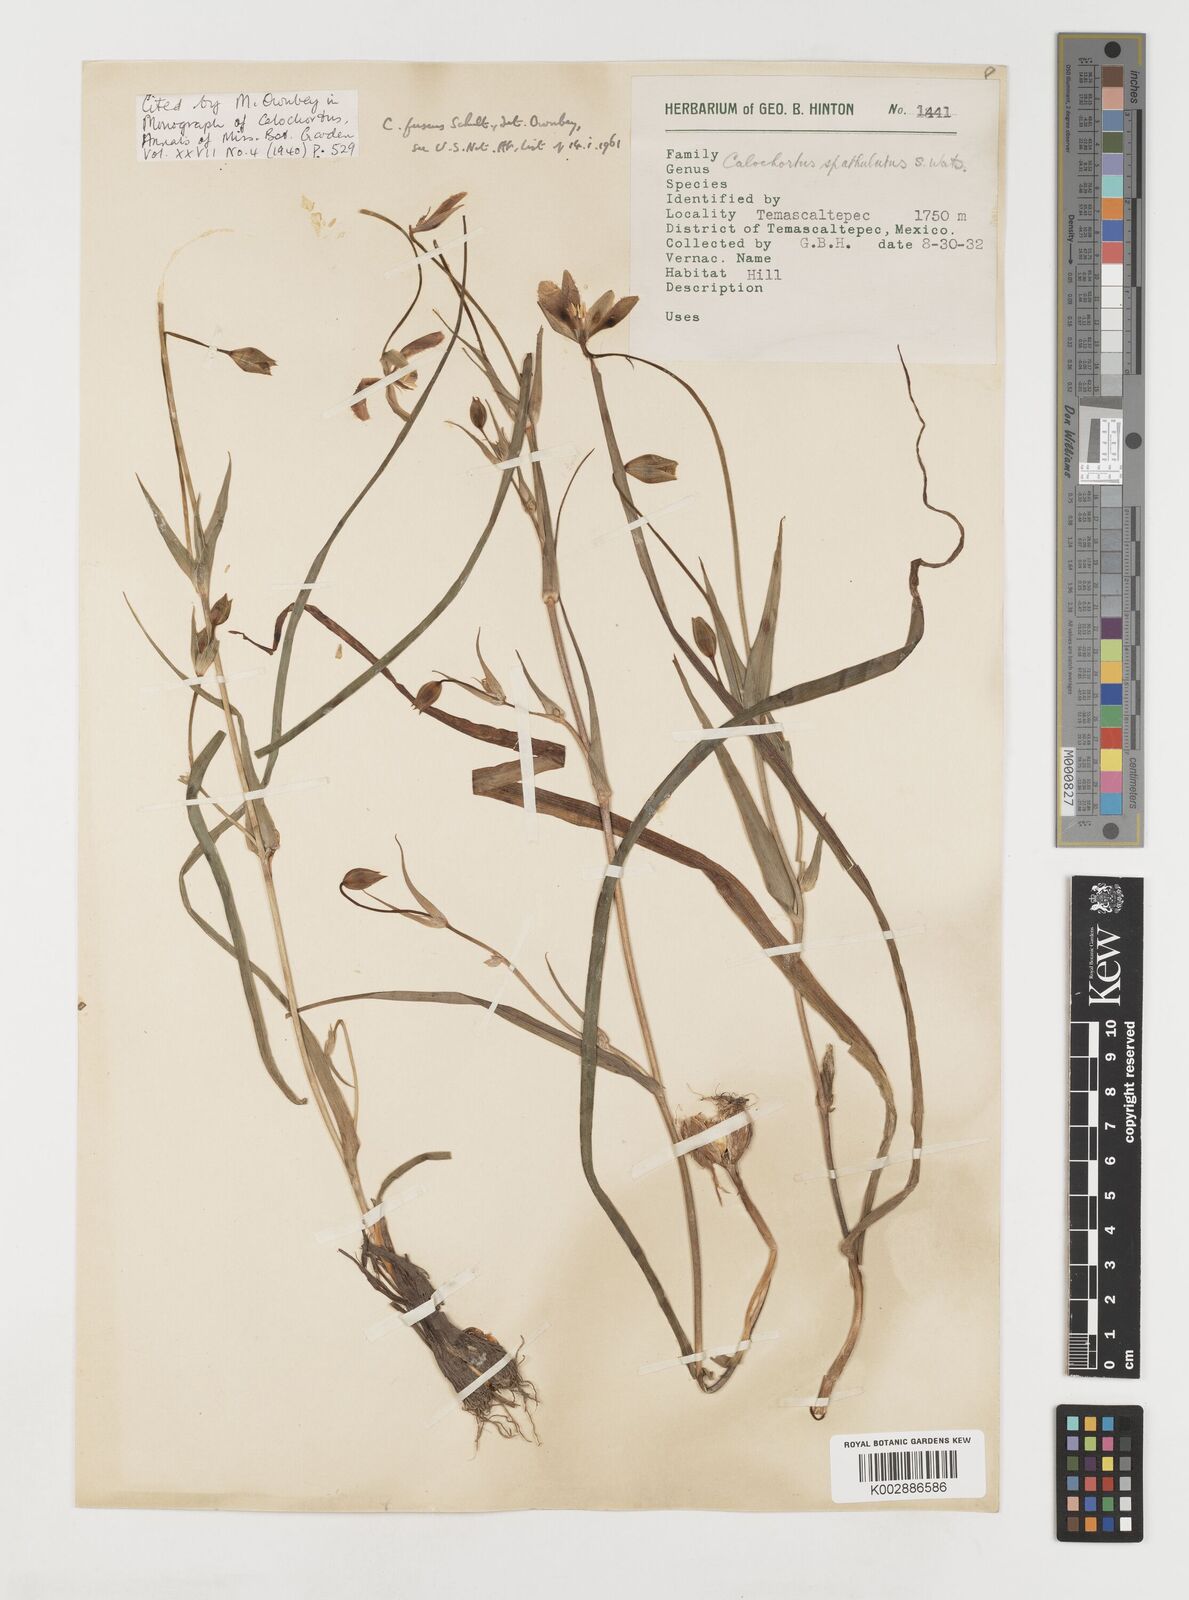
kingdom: Plantae
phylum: Tracheophyta
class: Liliopsida
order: Liliales
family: Liliaceae
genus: Calochortus
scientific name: Calochortus fuscus
